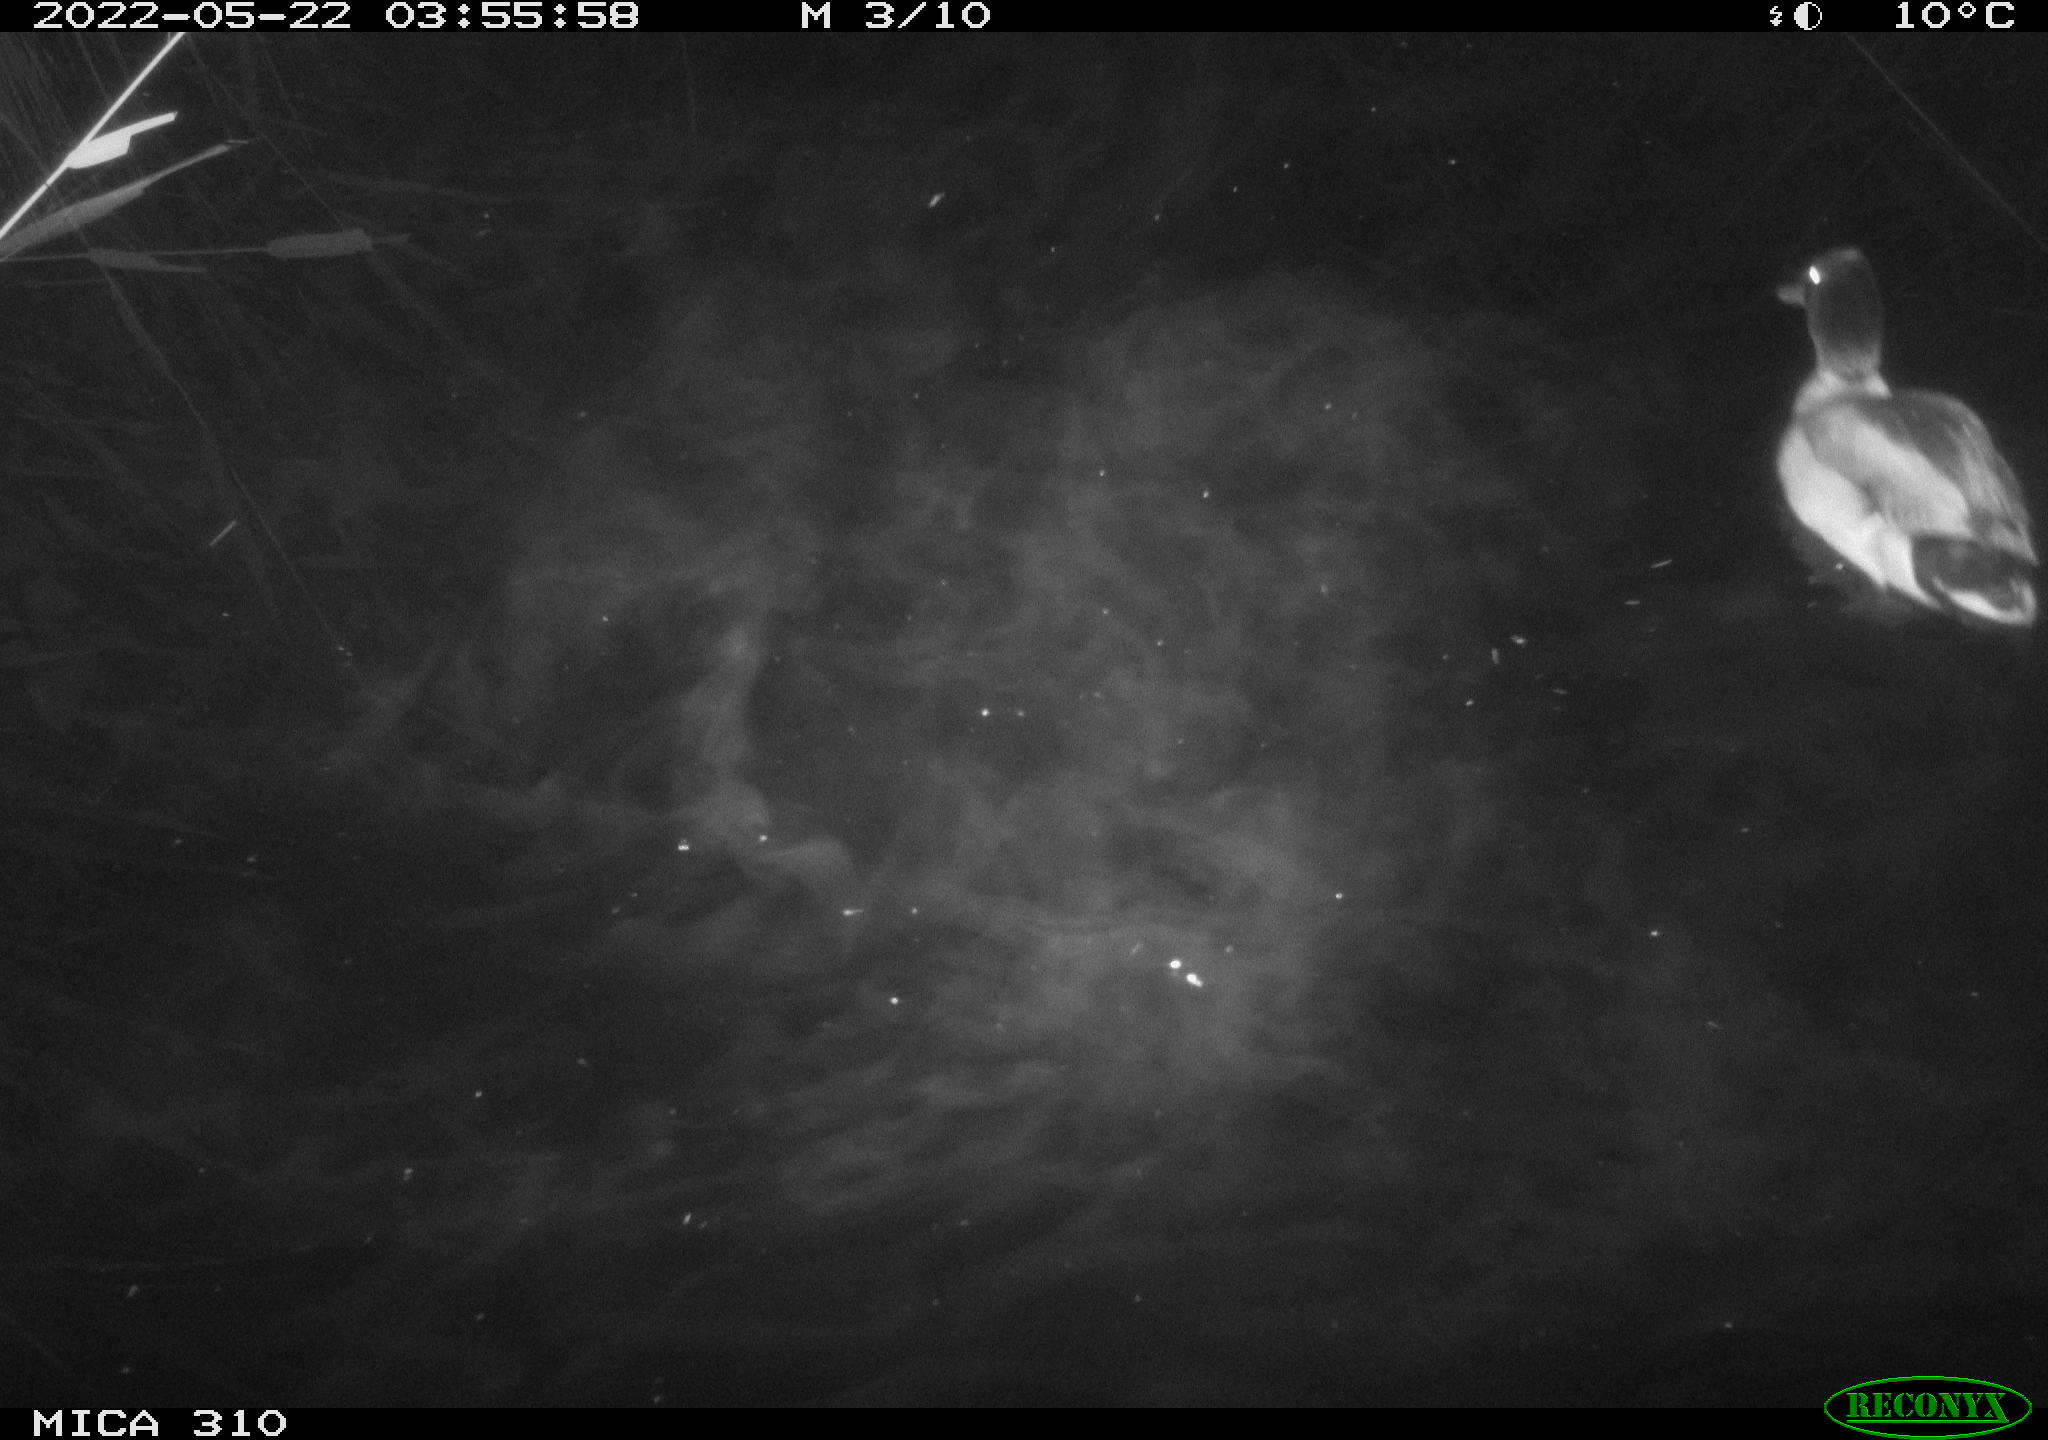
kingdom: Animalia
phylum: Chordata
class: Aves
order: Anseriformes
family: Anatidae
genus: Anas
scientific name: Anas platyrhynchos
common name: Mallard
